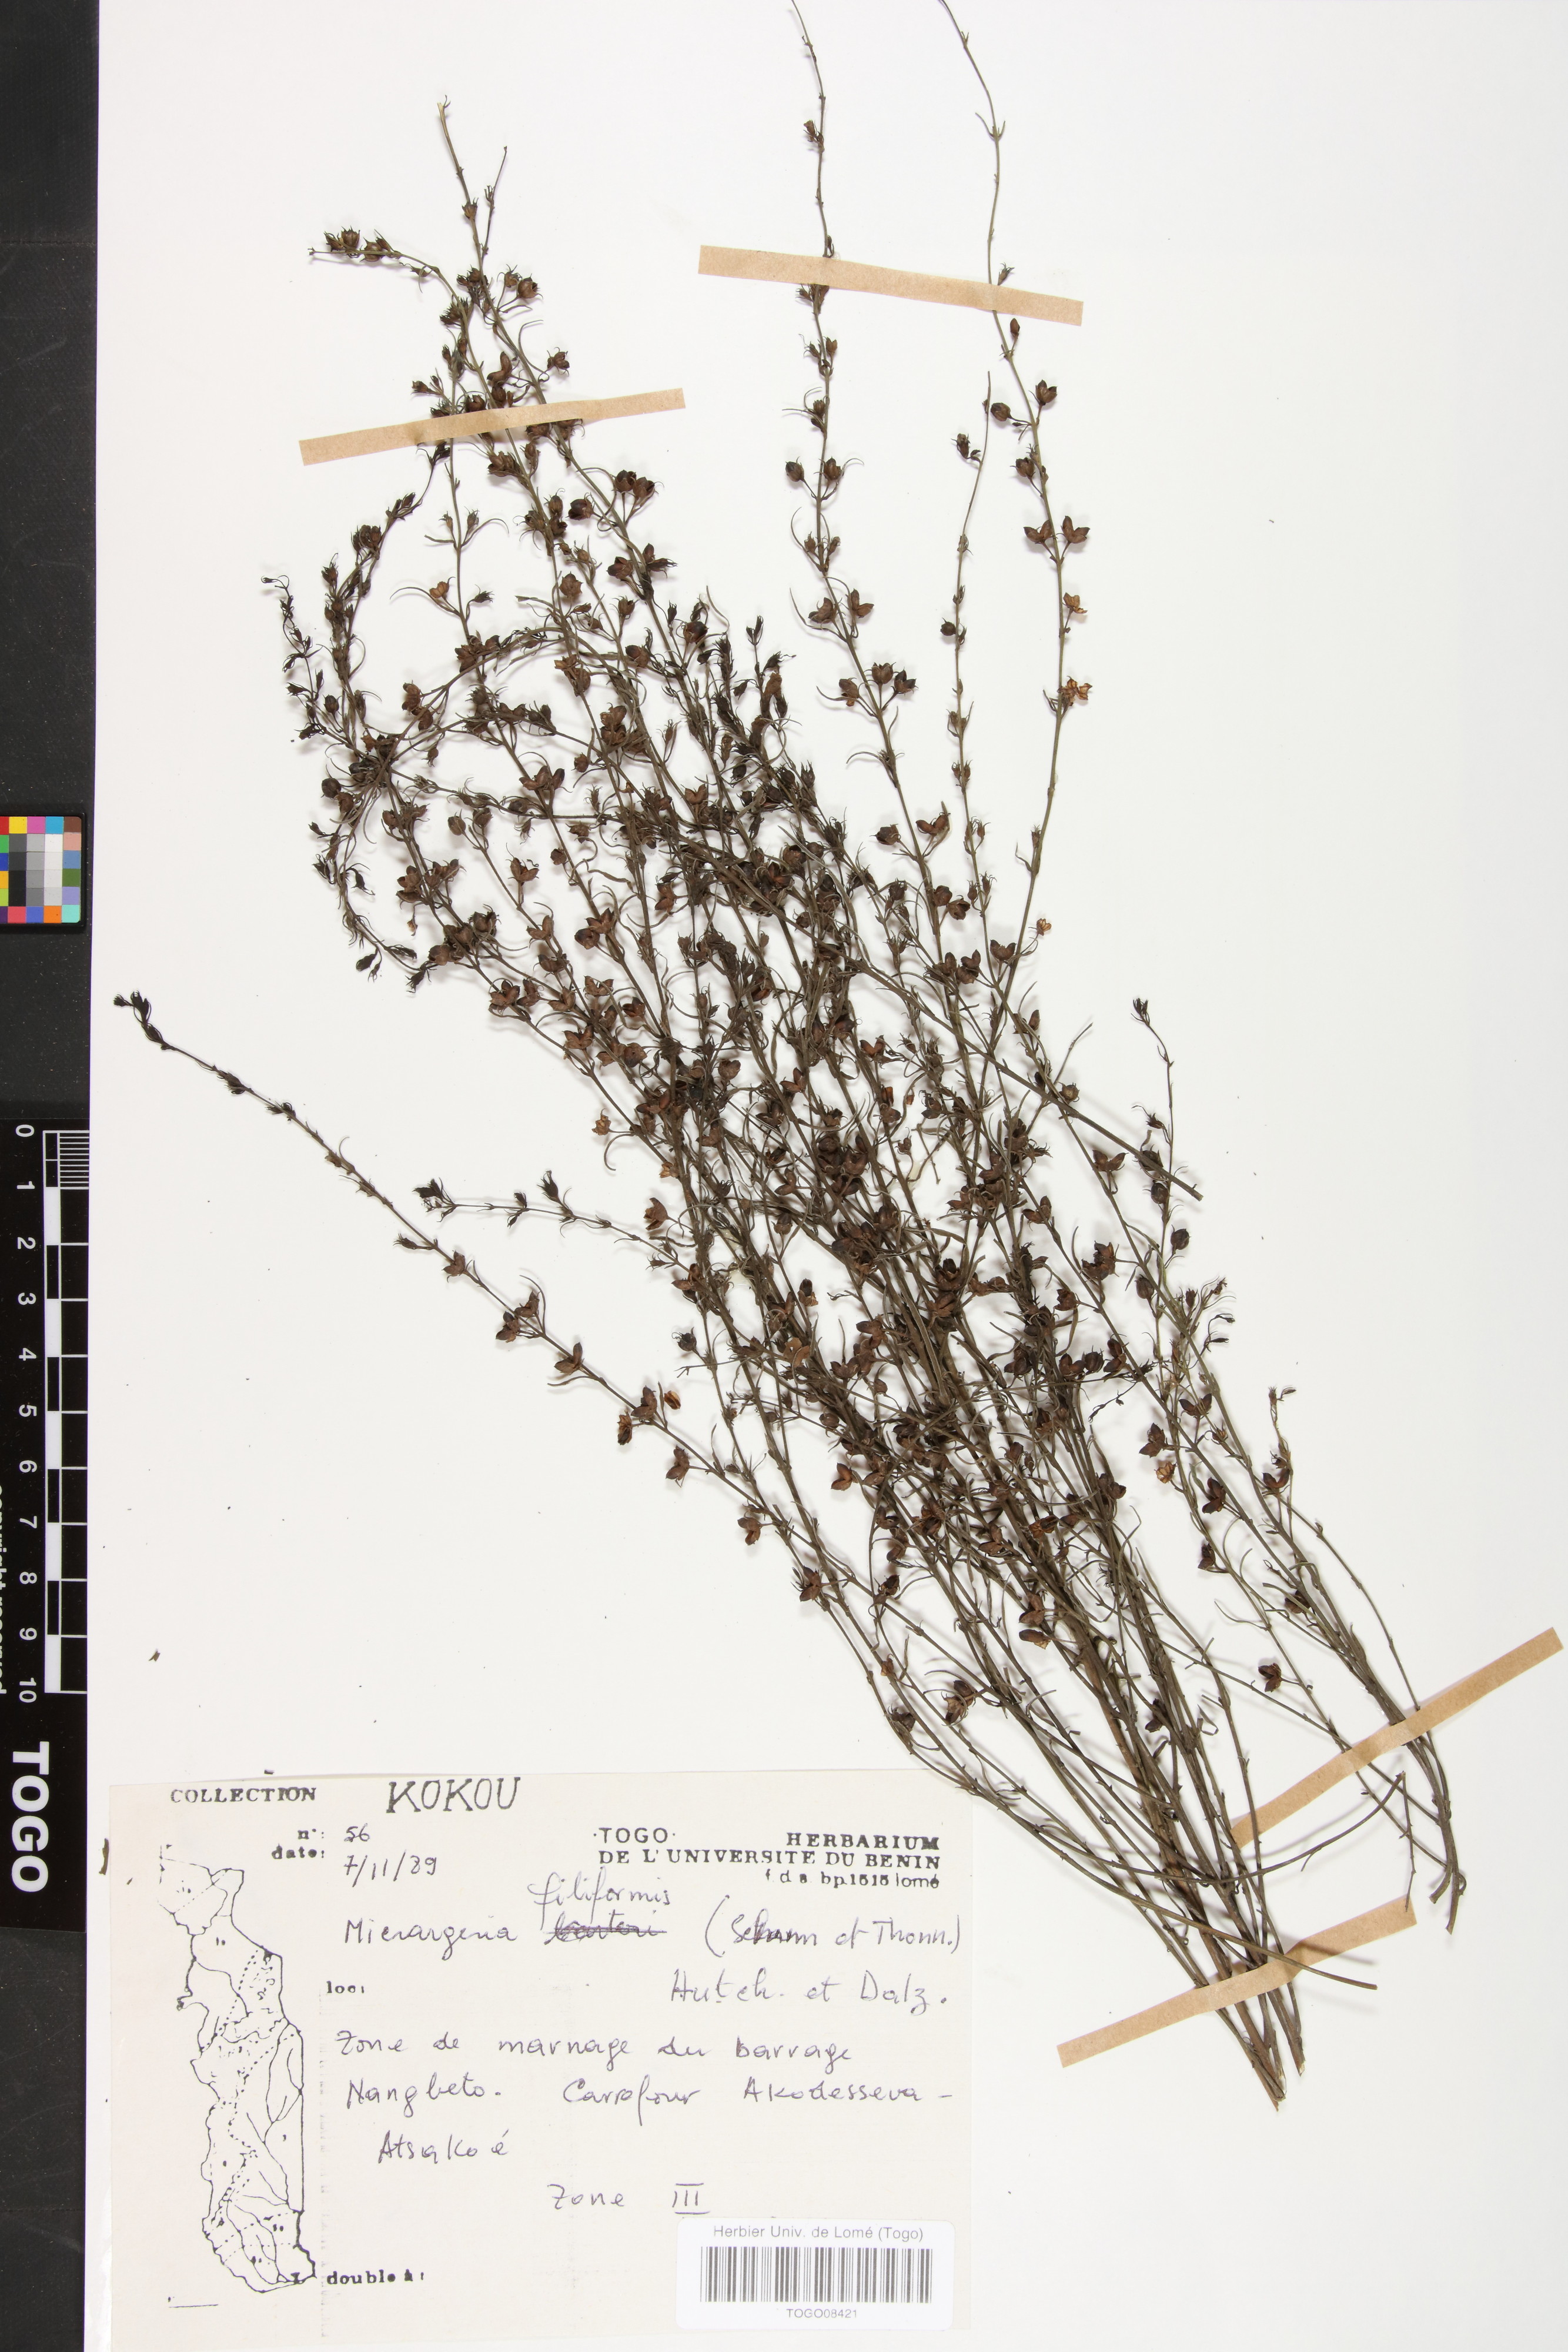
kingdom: Plantae
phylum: Tracheophyta
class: Magnoliopsida
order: Lamiales
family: Orobanchaceae
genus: Micrargeria
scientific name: Micrargeria filiformis
